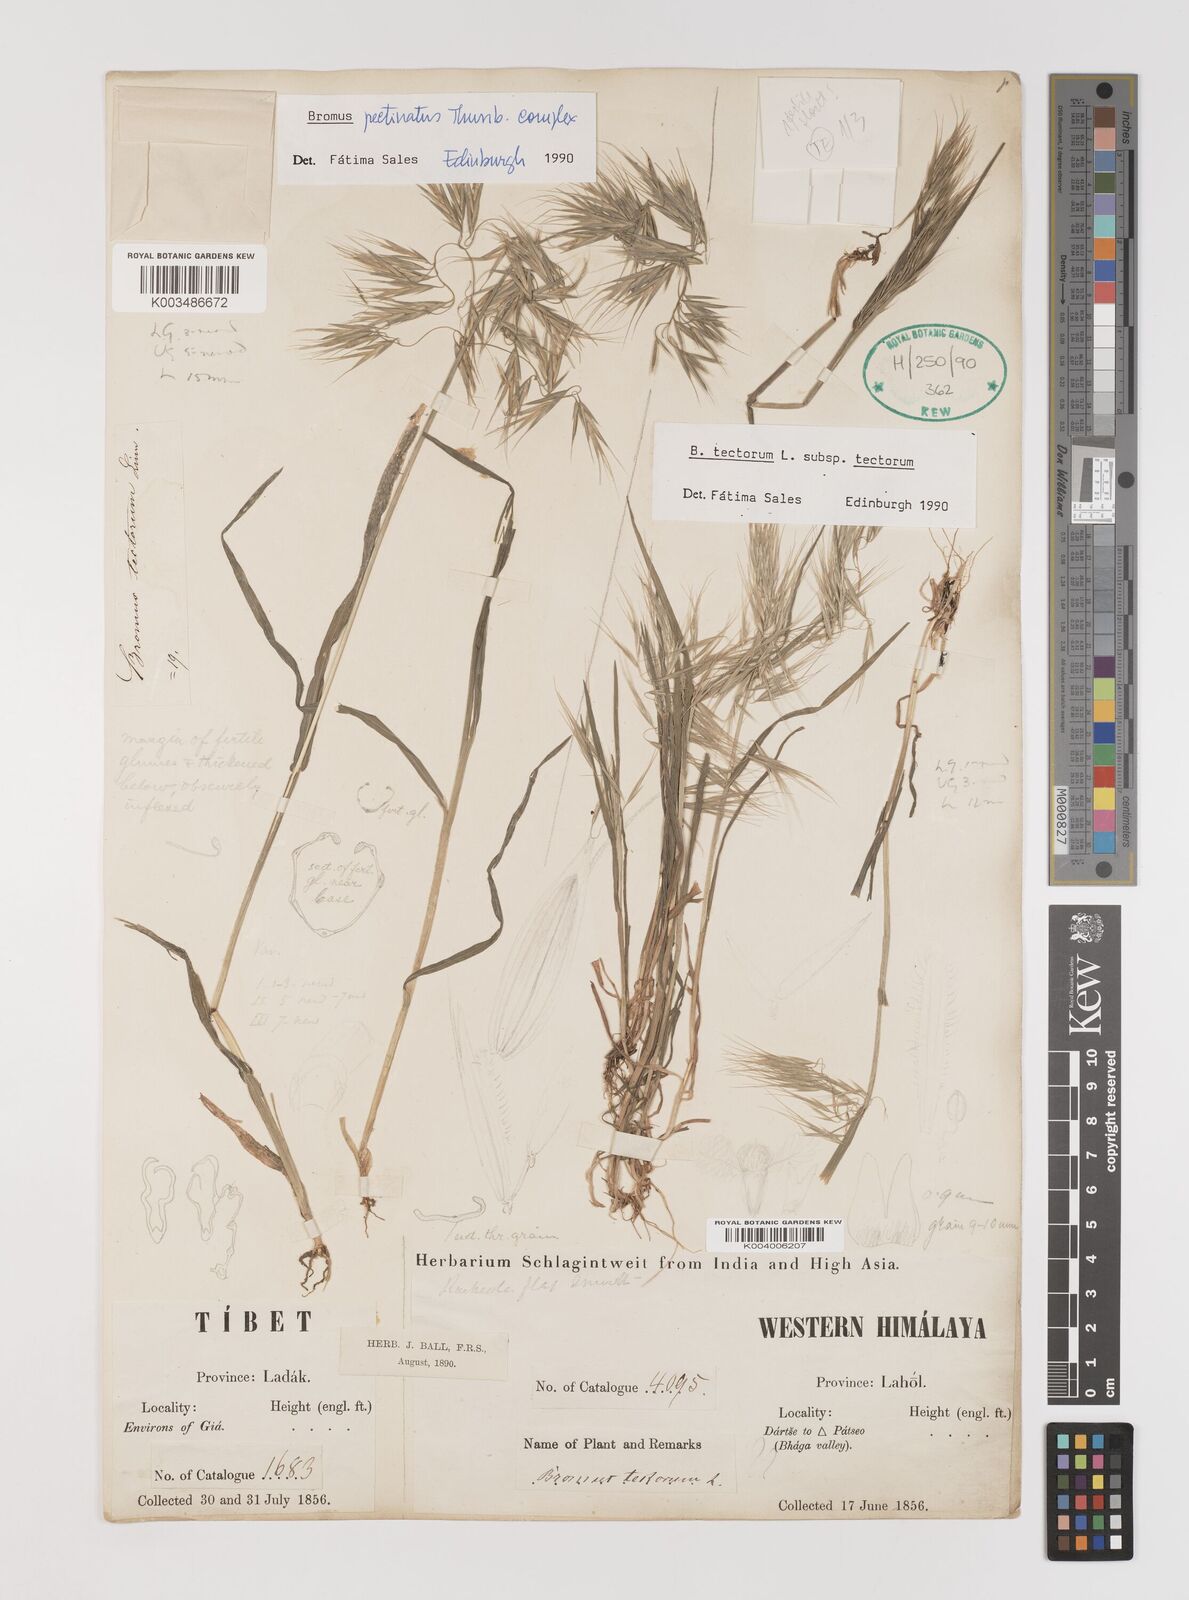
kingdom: Plantae
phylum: Tracheophyta
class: Liliopsida
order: Poales
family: Poaceae
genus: Bromus
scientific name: Bromus pectinatus
